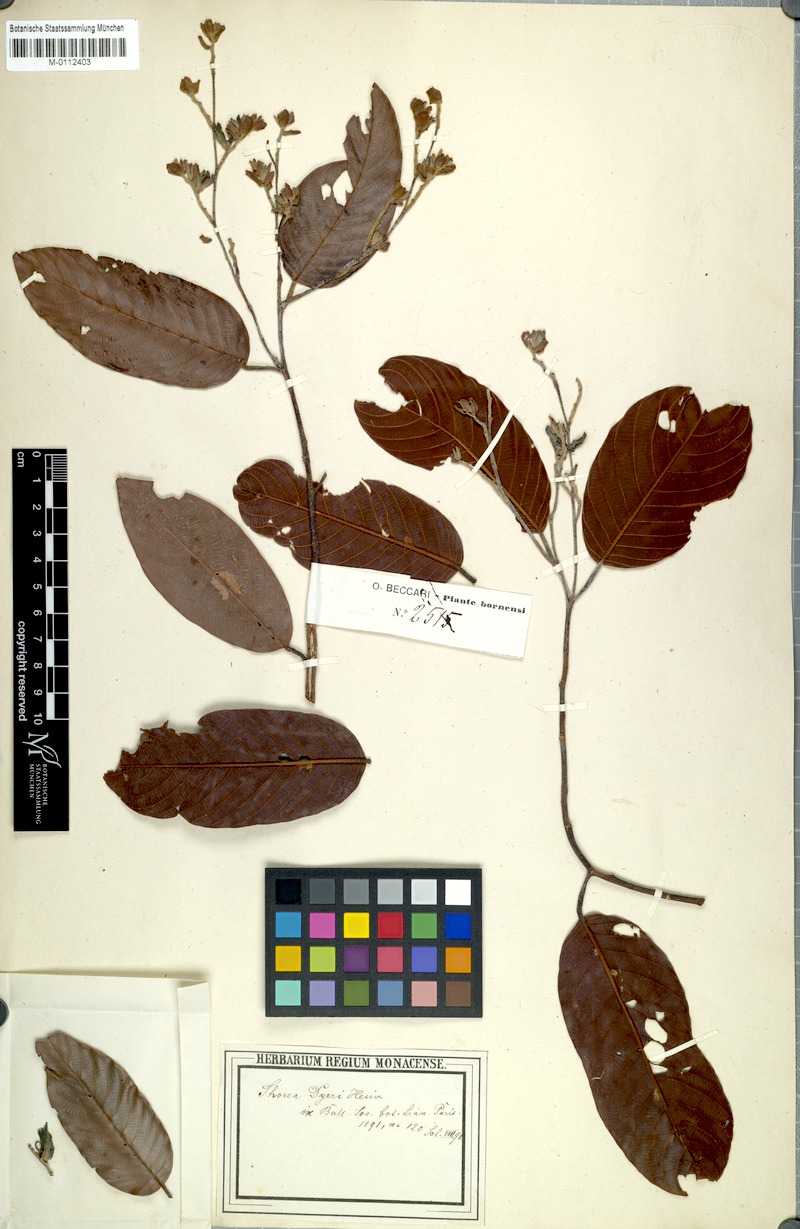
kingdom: Plantae
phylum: Tracheophyta
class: Magnoliopsida
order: Malvales
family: Dipterocarpaceae
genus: Shorea
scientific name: Shorea parvistipulata
